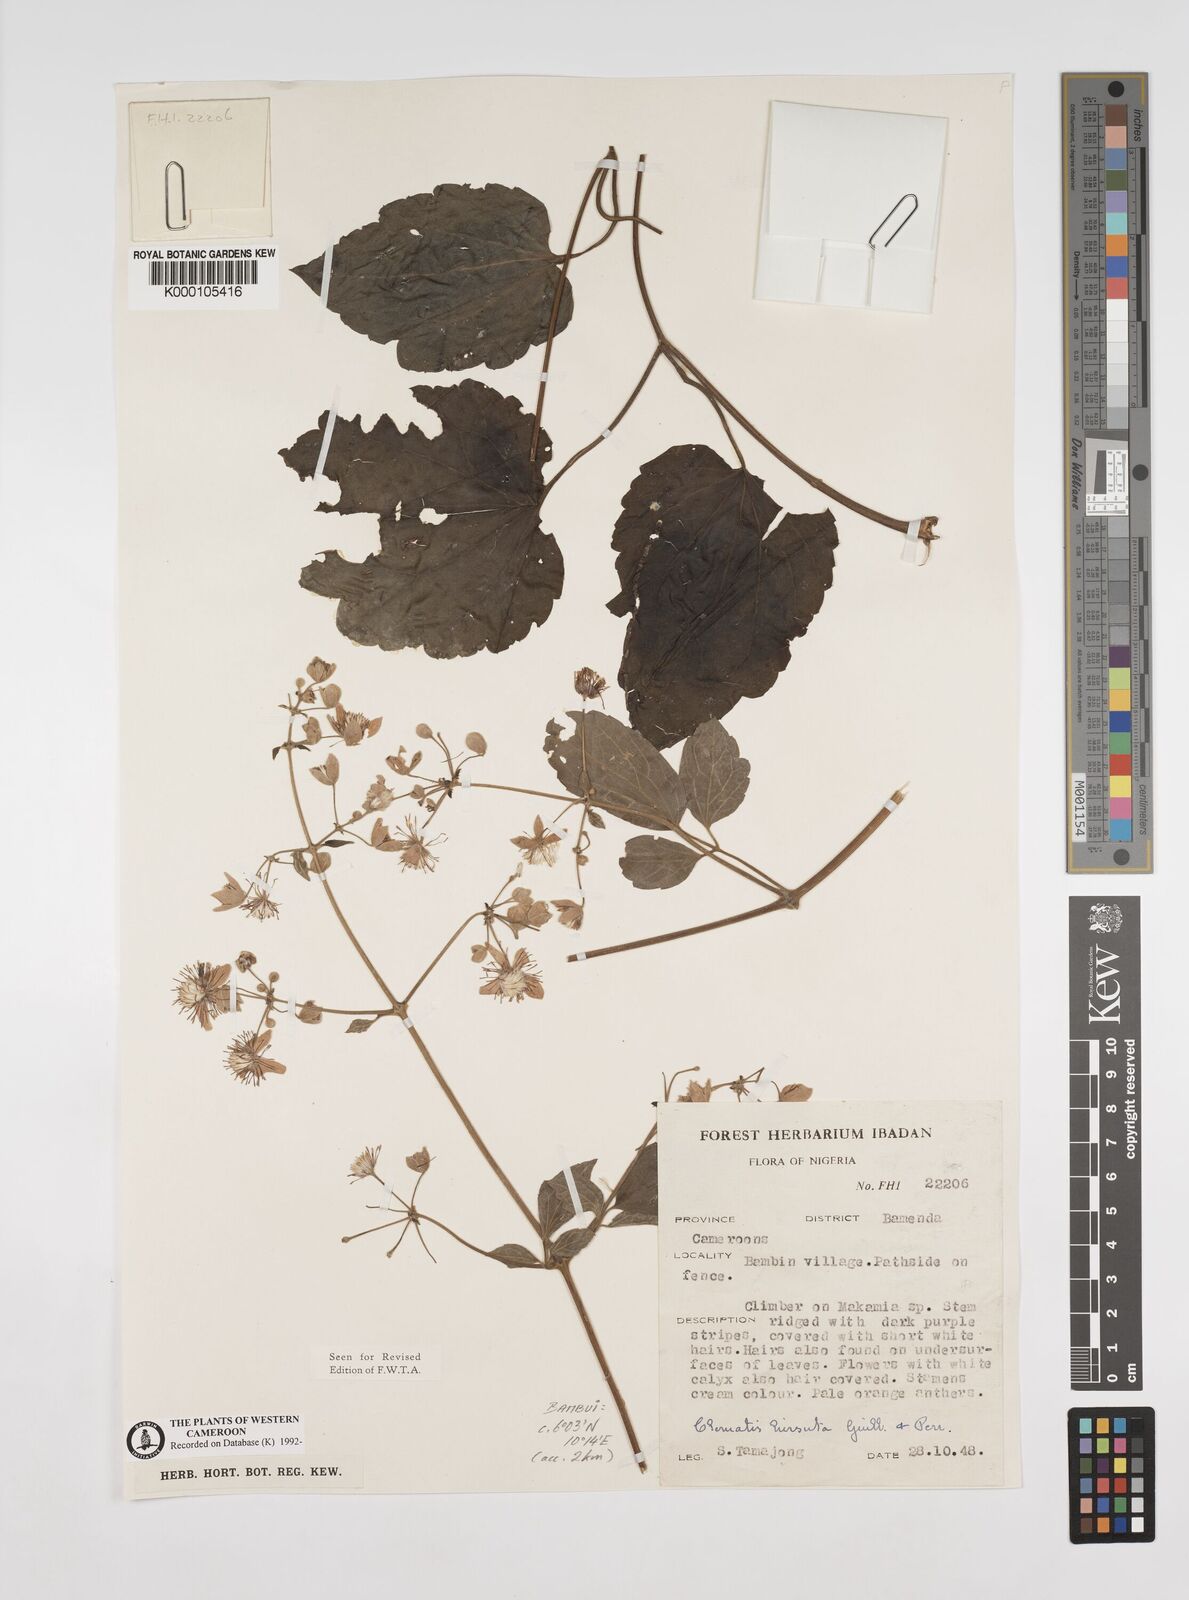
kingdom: Plantae
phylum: Tracheophyta
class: Magnoliopsida
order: Ranunculales
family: Ranunculaceae
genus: Clematis
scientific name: Clematis hirsuta
